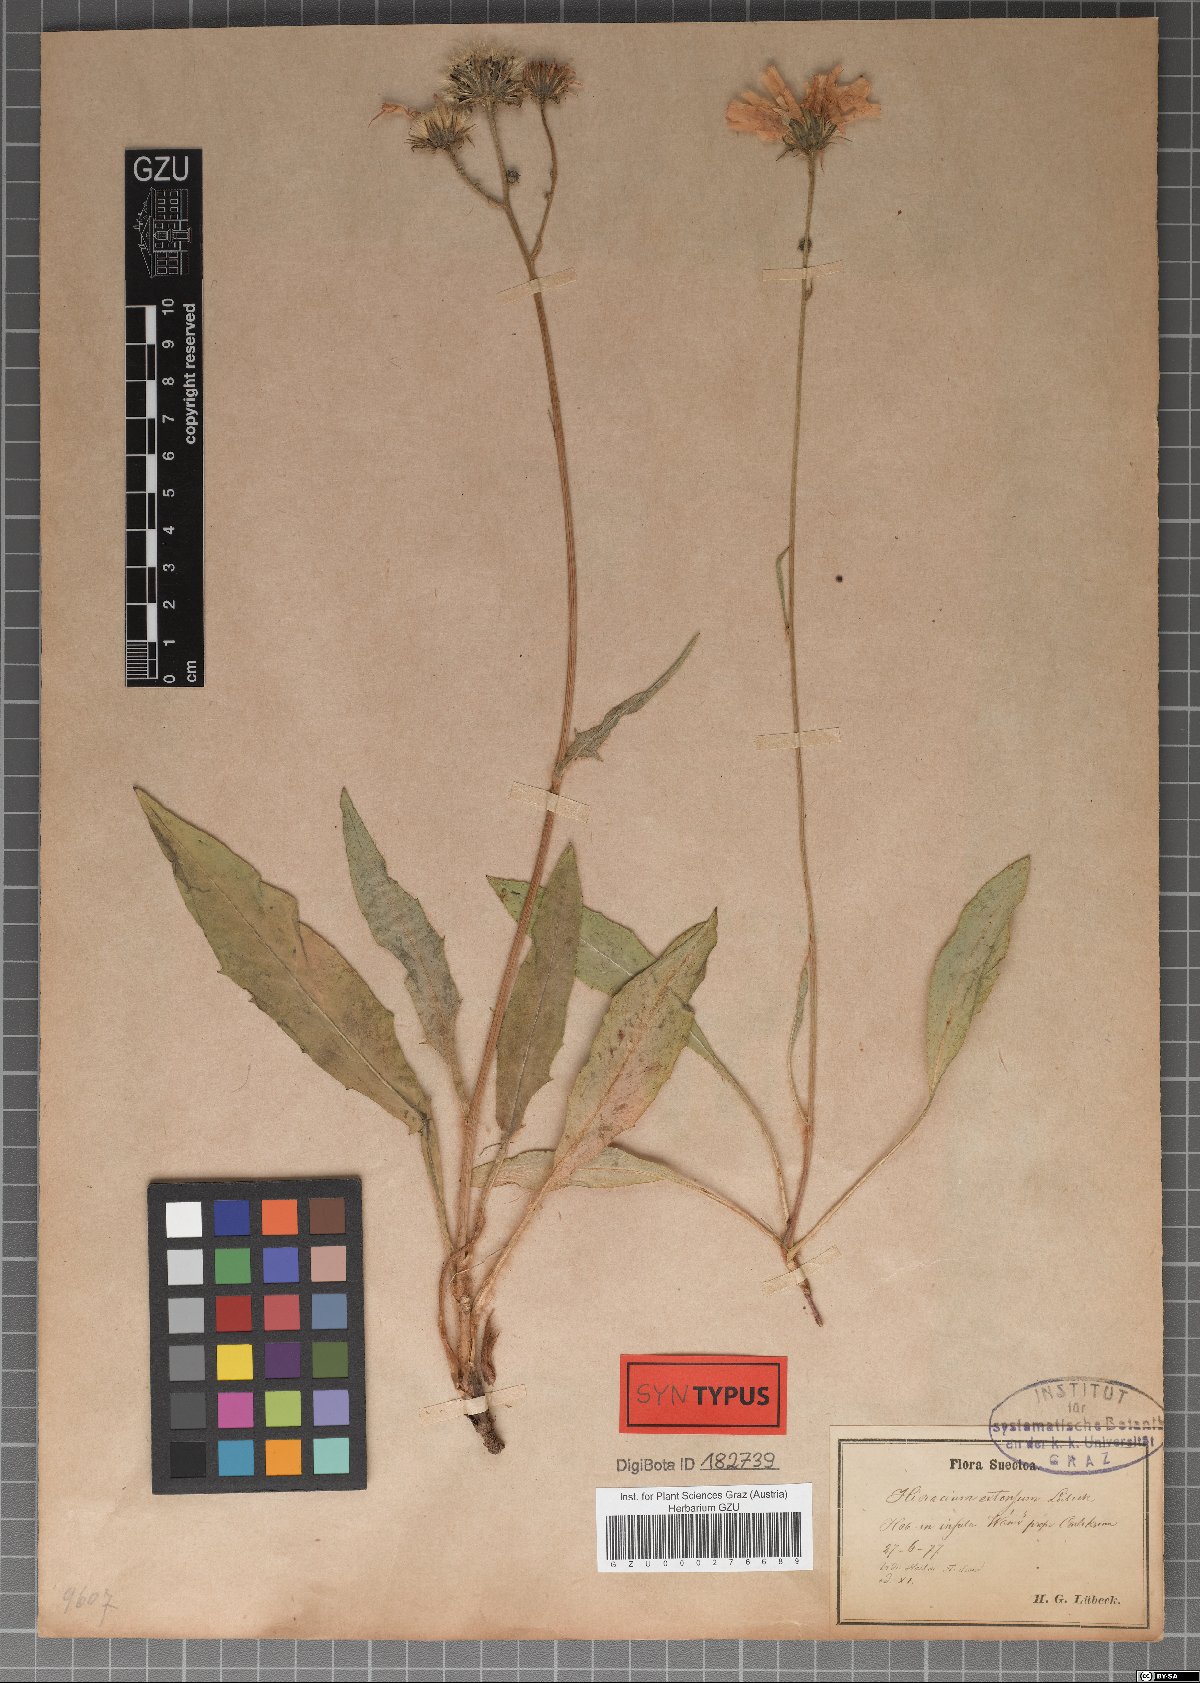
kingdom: Plantae
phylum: Tracheophyta
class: Magnoliopsida
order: Asterales
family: Asteraceae
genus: Hieracium
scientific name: Hieracium extensum
